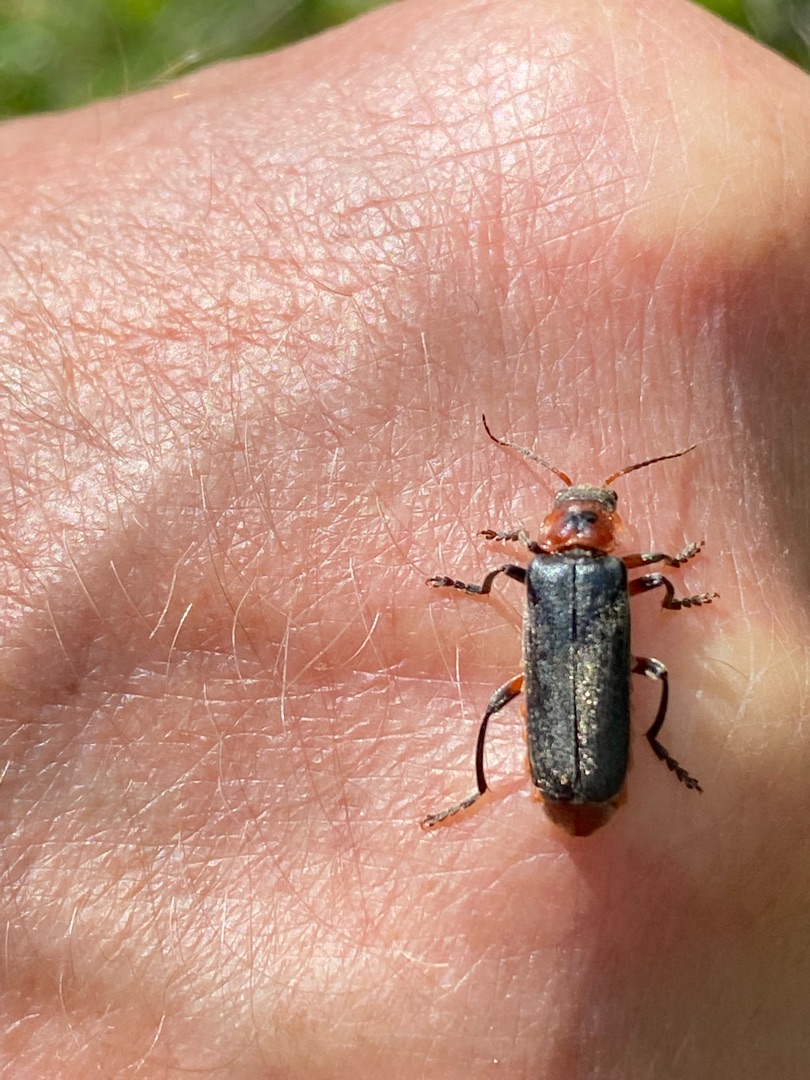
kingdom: Animalia
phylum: Arthropoda
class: Insecta
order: Coleoptera
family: Cantharidae
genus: Cantharis
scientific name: Cantharis rustica
